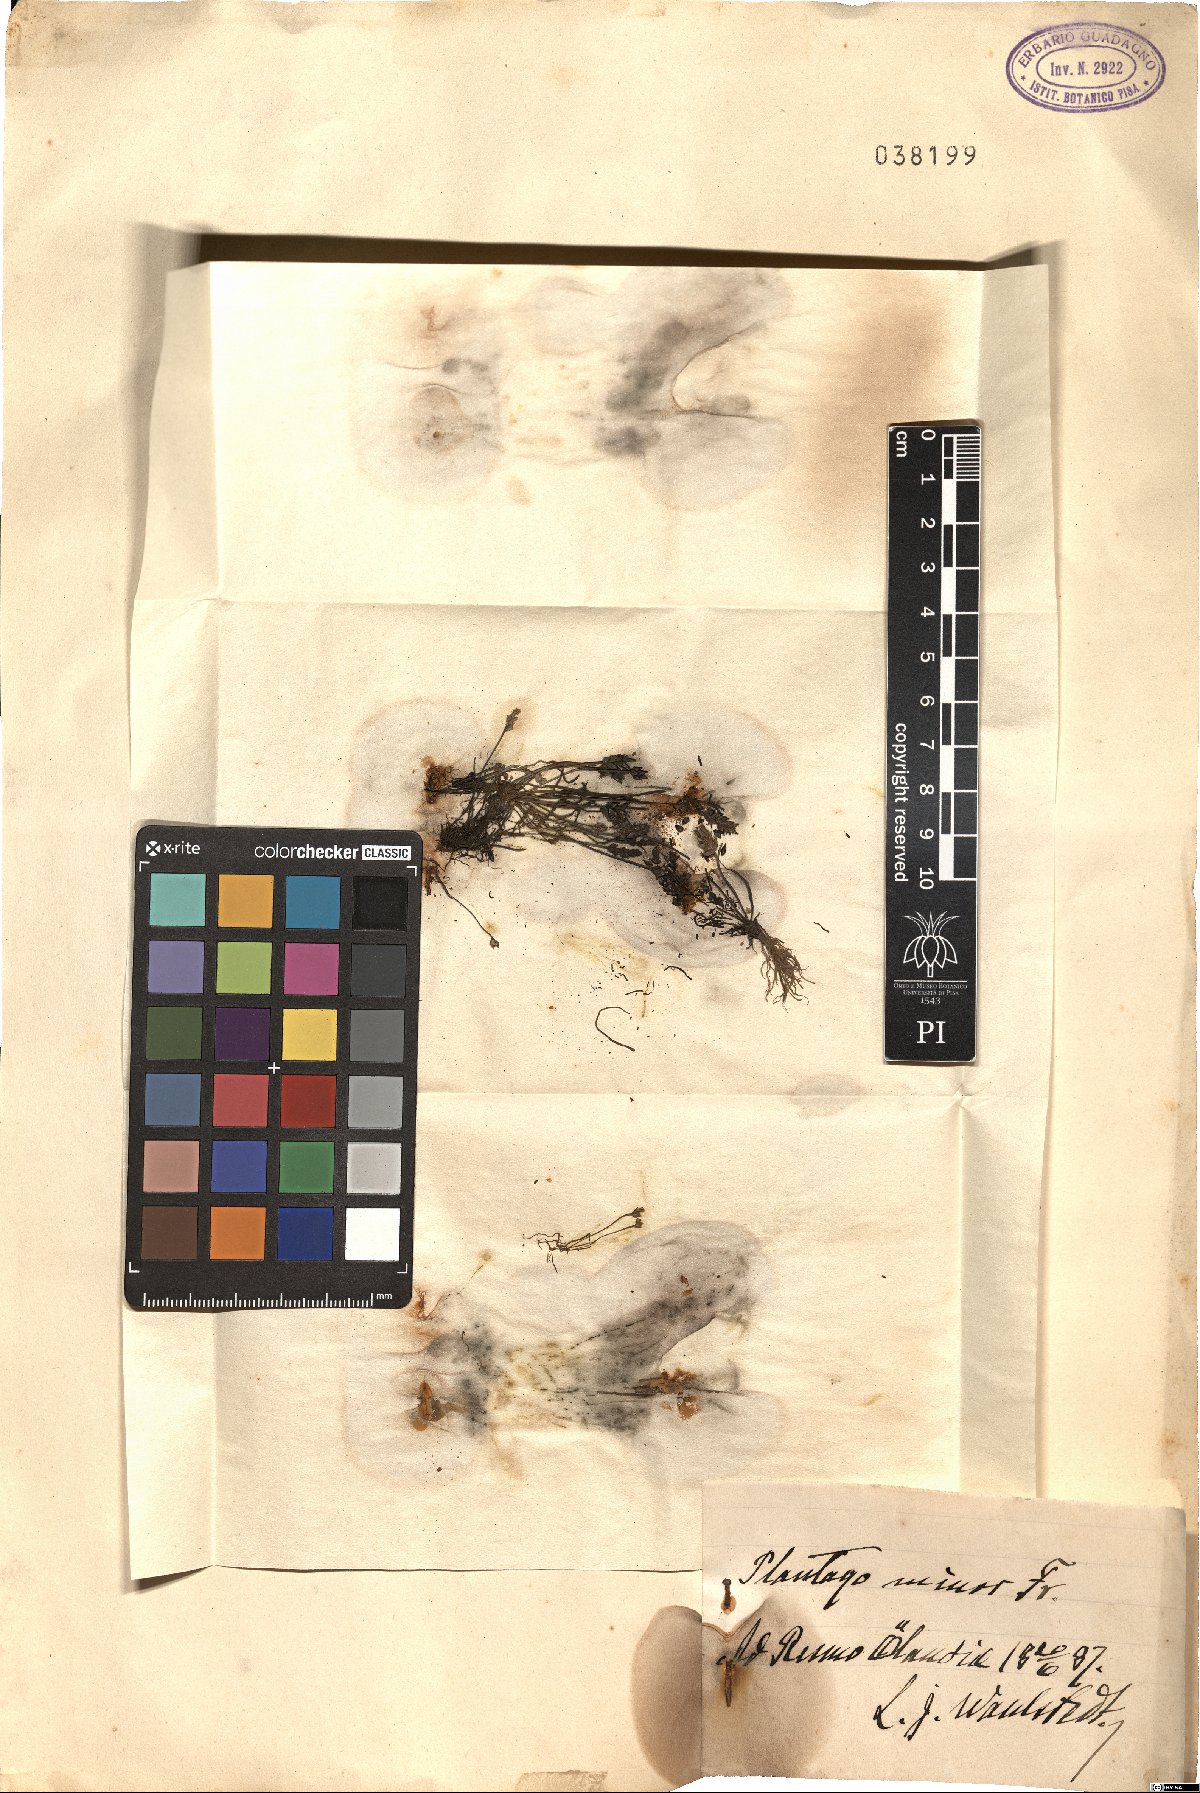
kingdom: Plantae
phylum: Tracheophyta
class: Magnoliopsida
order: Lamiales
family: Plantaginaceae
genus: Plantago
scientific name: Plantago oelandica
